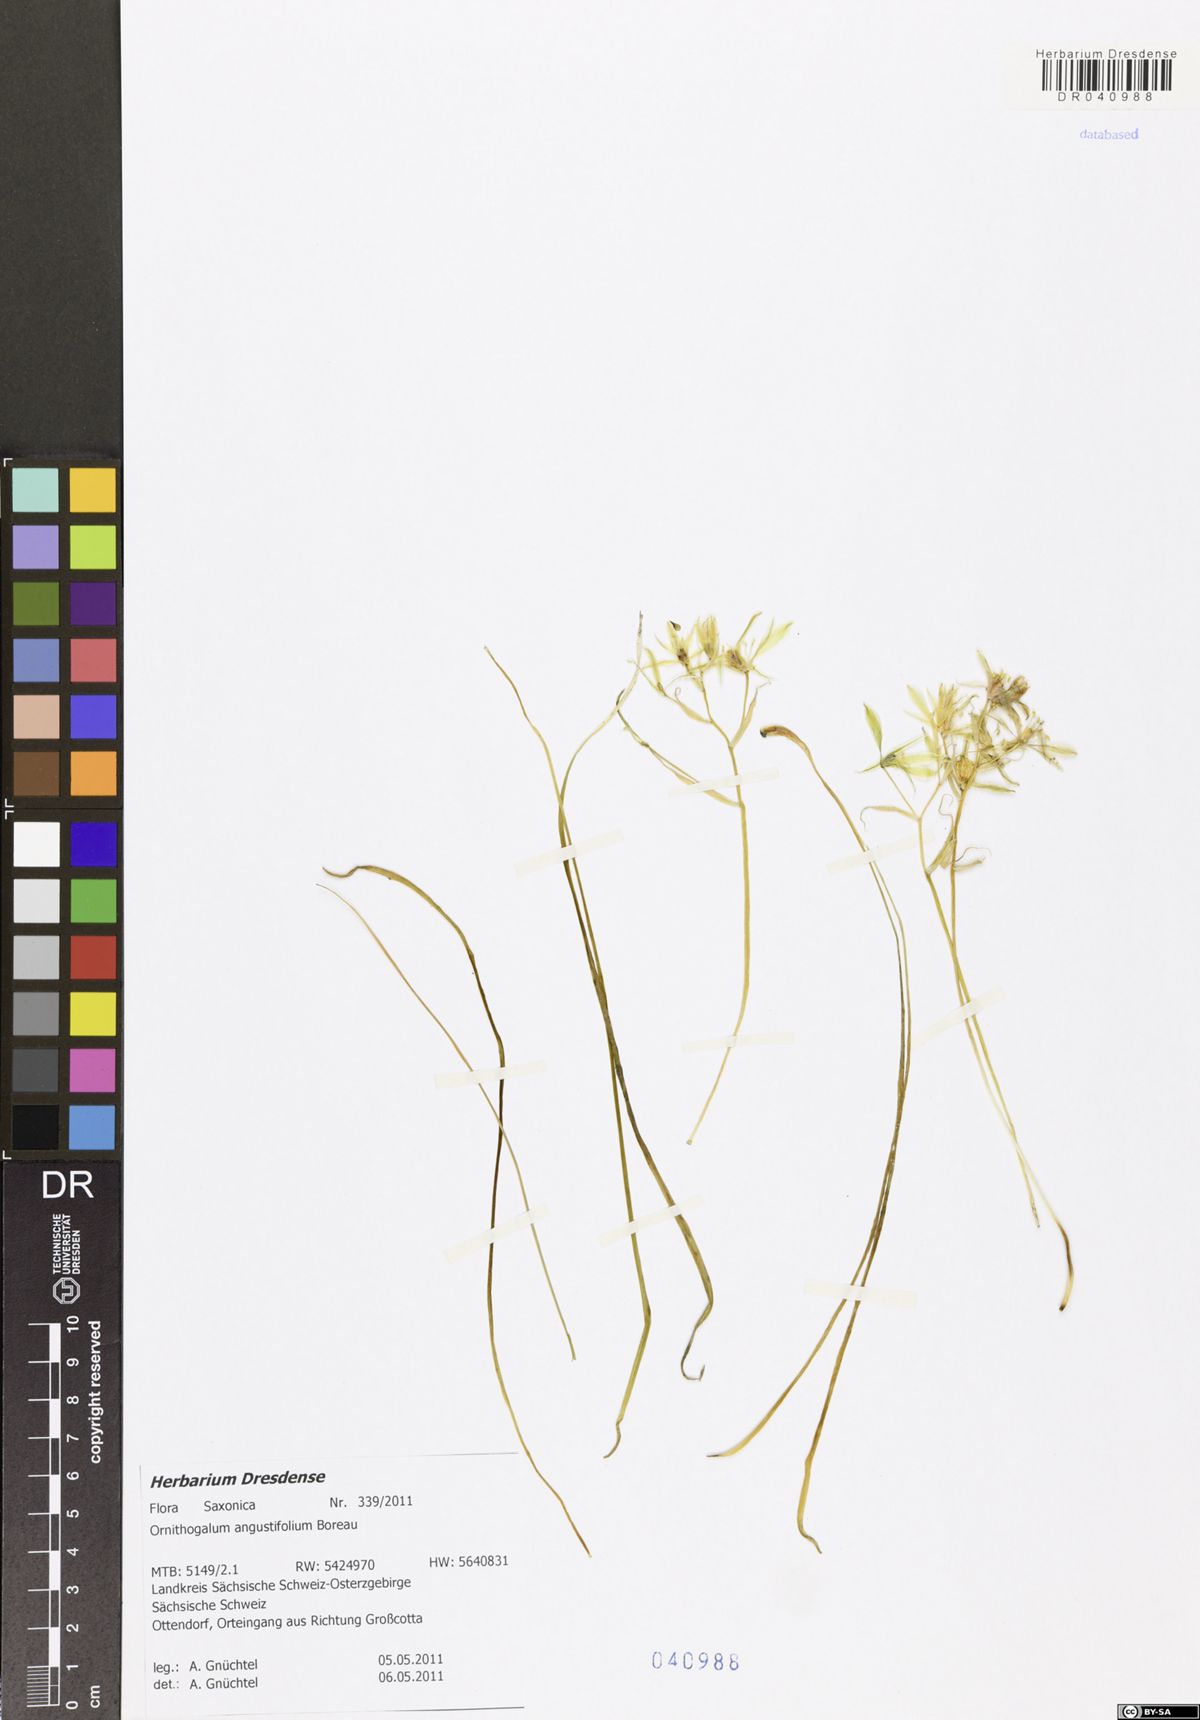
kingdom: Plantae
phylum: Tracheophyta
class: Liliopsida
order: Asparagales
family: Asparagaceae
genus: Ornithogalum
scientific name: Ornithogalum umbellatum
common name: Garden star-of-bethlehem
